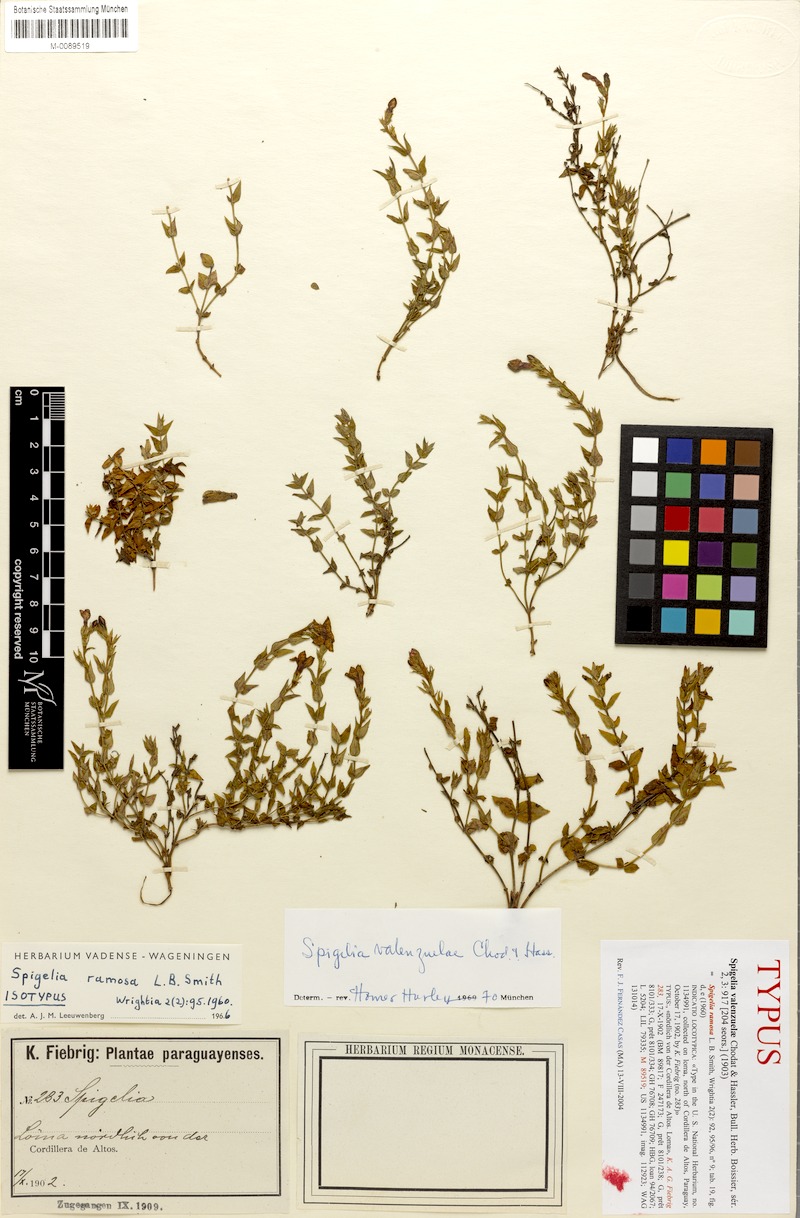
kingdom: Plantae
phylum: Tracheophyta
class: Magnoliopsida
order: Gentianales
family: Loganiaceae
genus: Spigelia
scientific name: Spigelia valenzuelae
